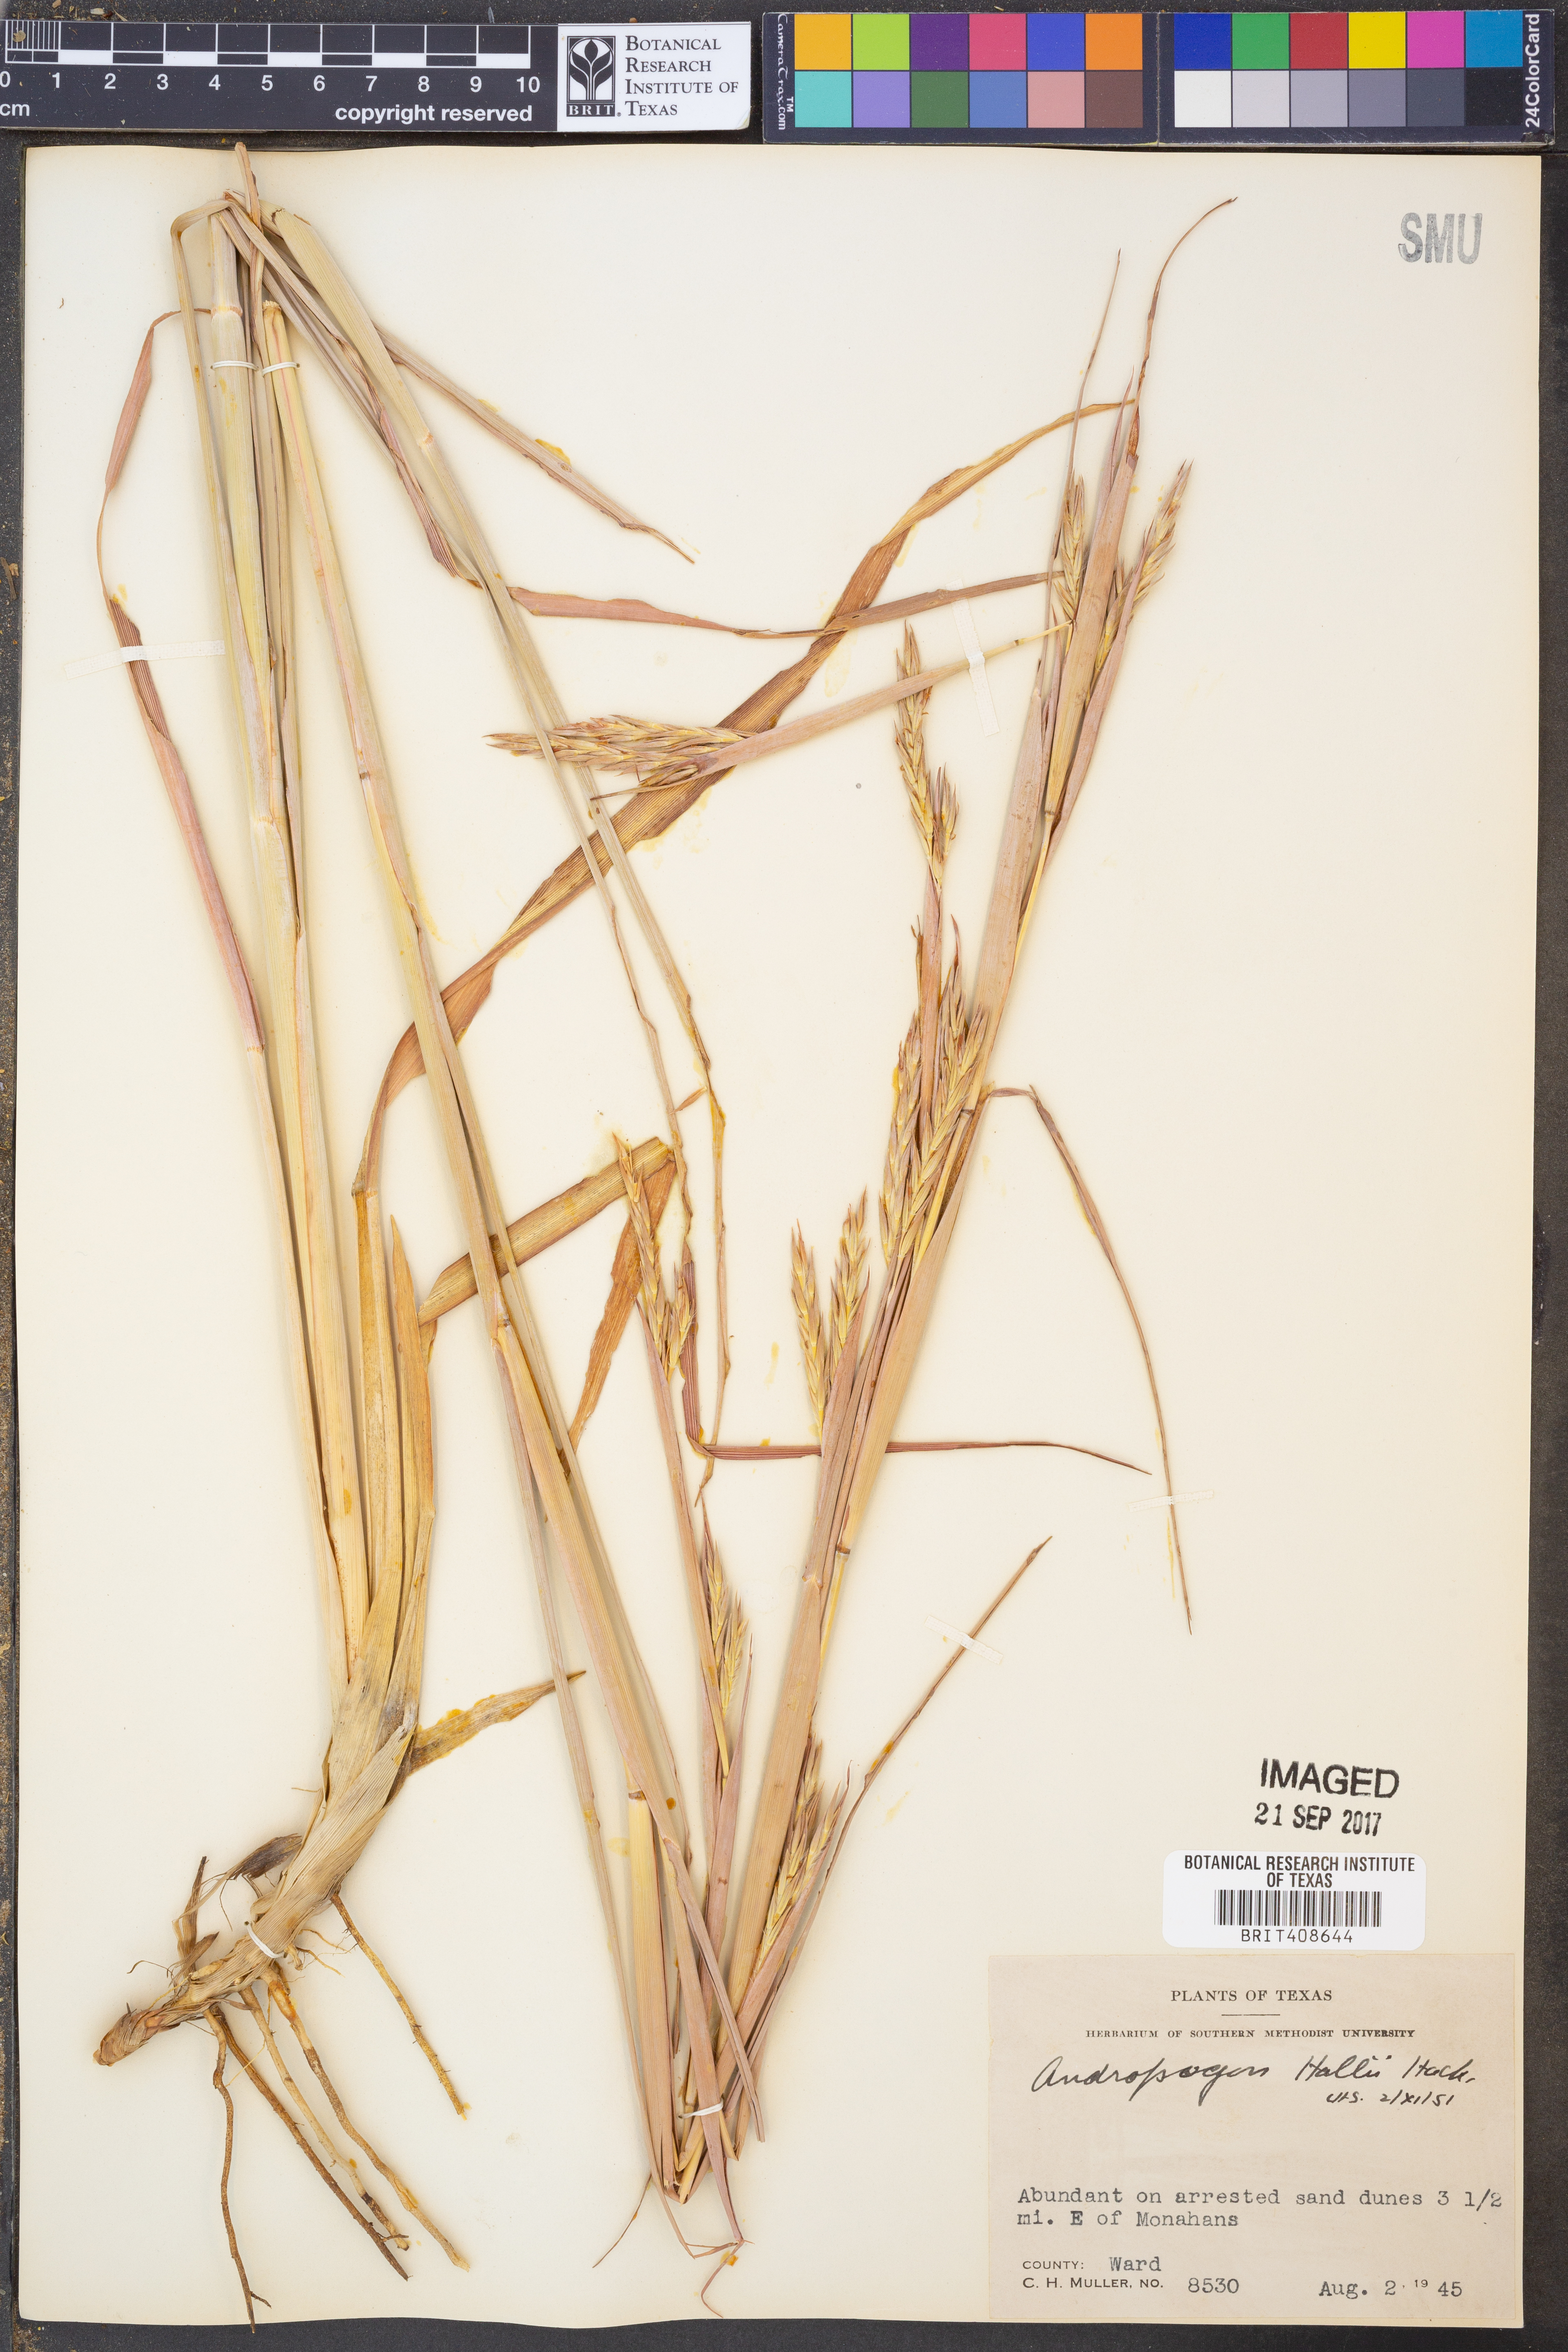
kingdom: Plantae
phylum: Tracheophyta
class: Liliopsida
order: Poales
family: Poaceae
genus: Andropogon
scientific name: Andropogon hallii
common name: Sand bluestem
